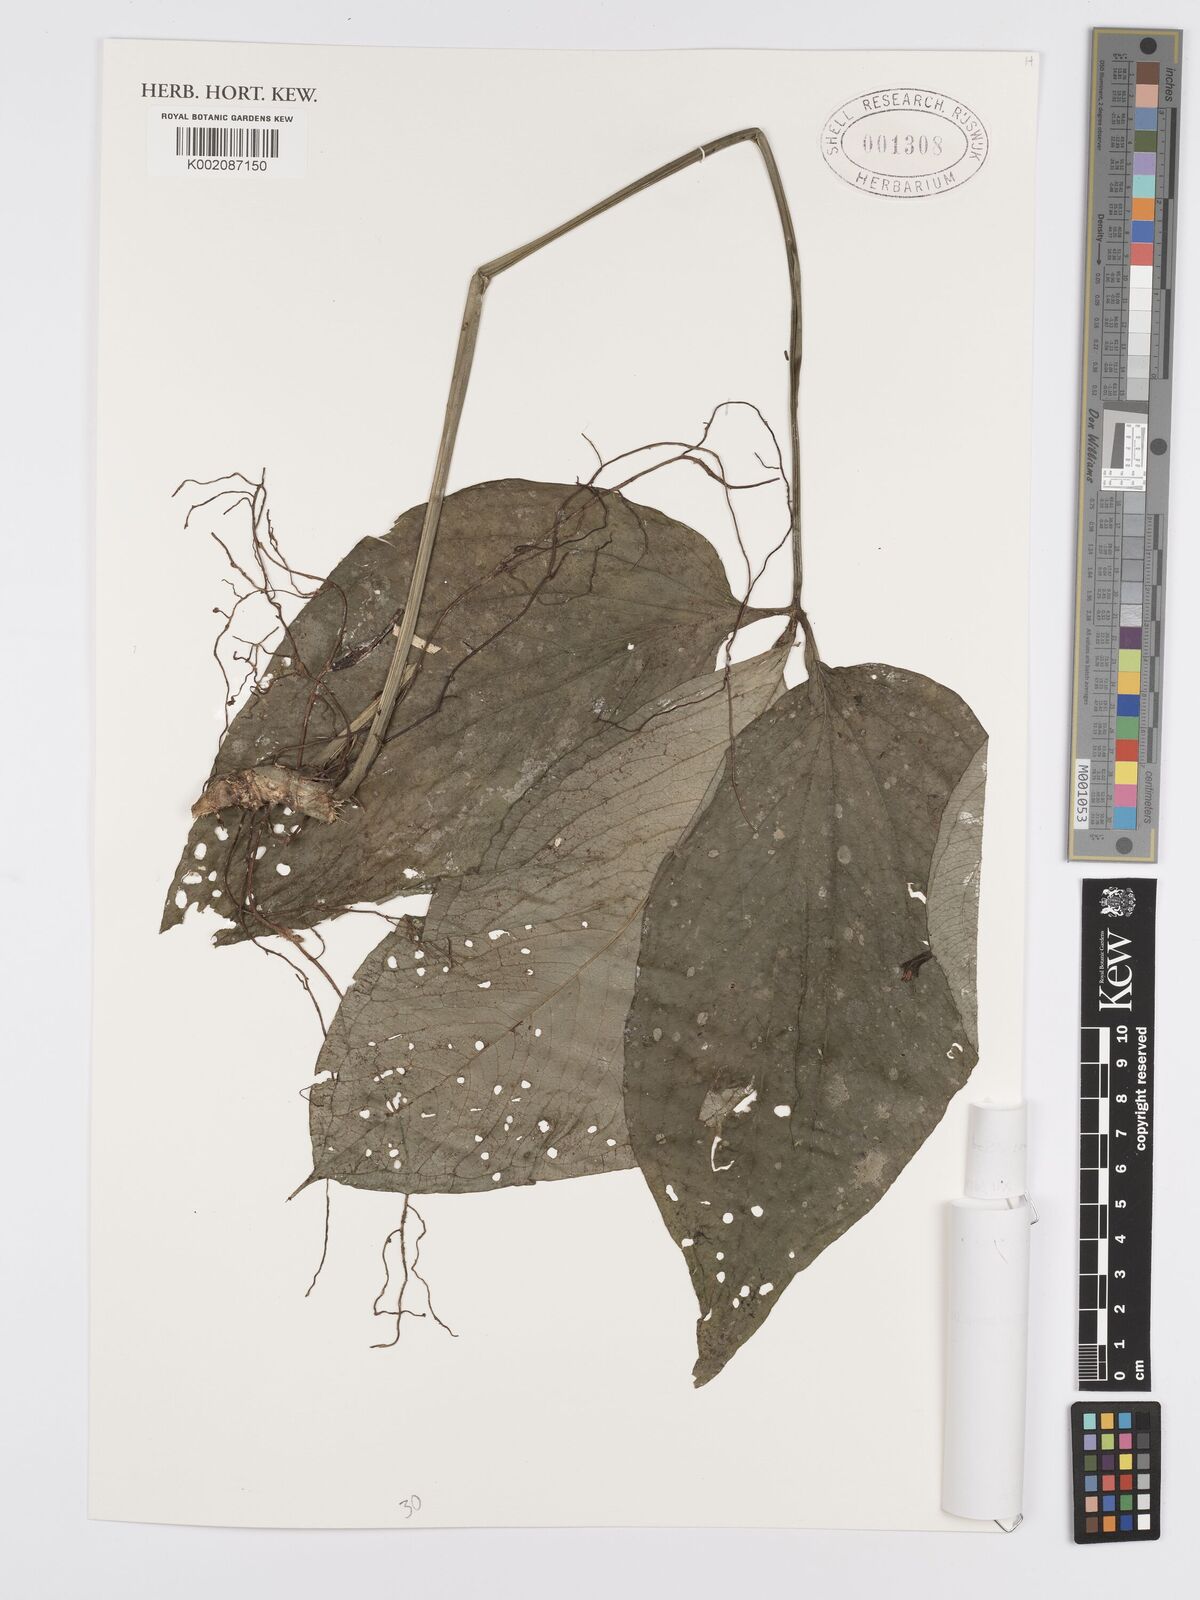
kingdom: Plantae
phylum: Tracheophyta
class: Liliopsida
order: Alismatales
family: Araceae
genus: Anthurium
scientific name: Anthurium trisectum
